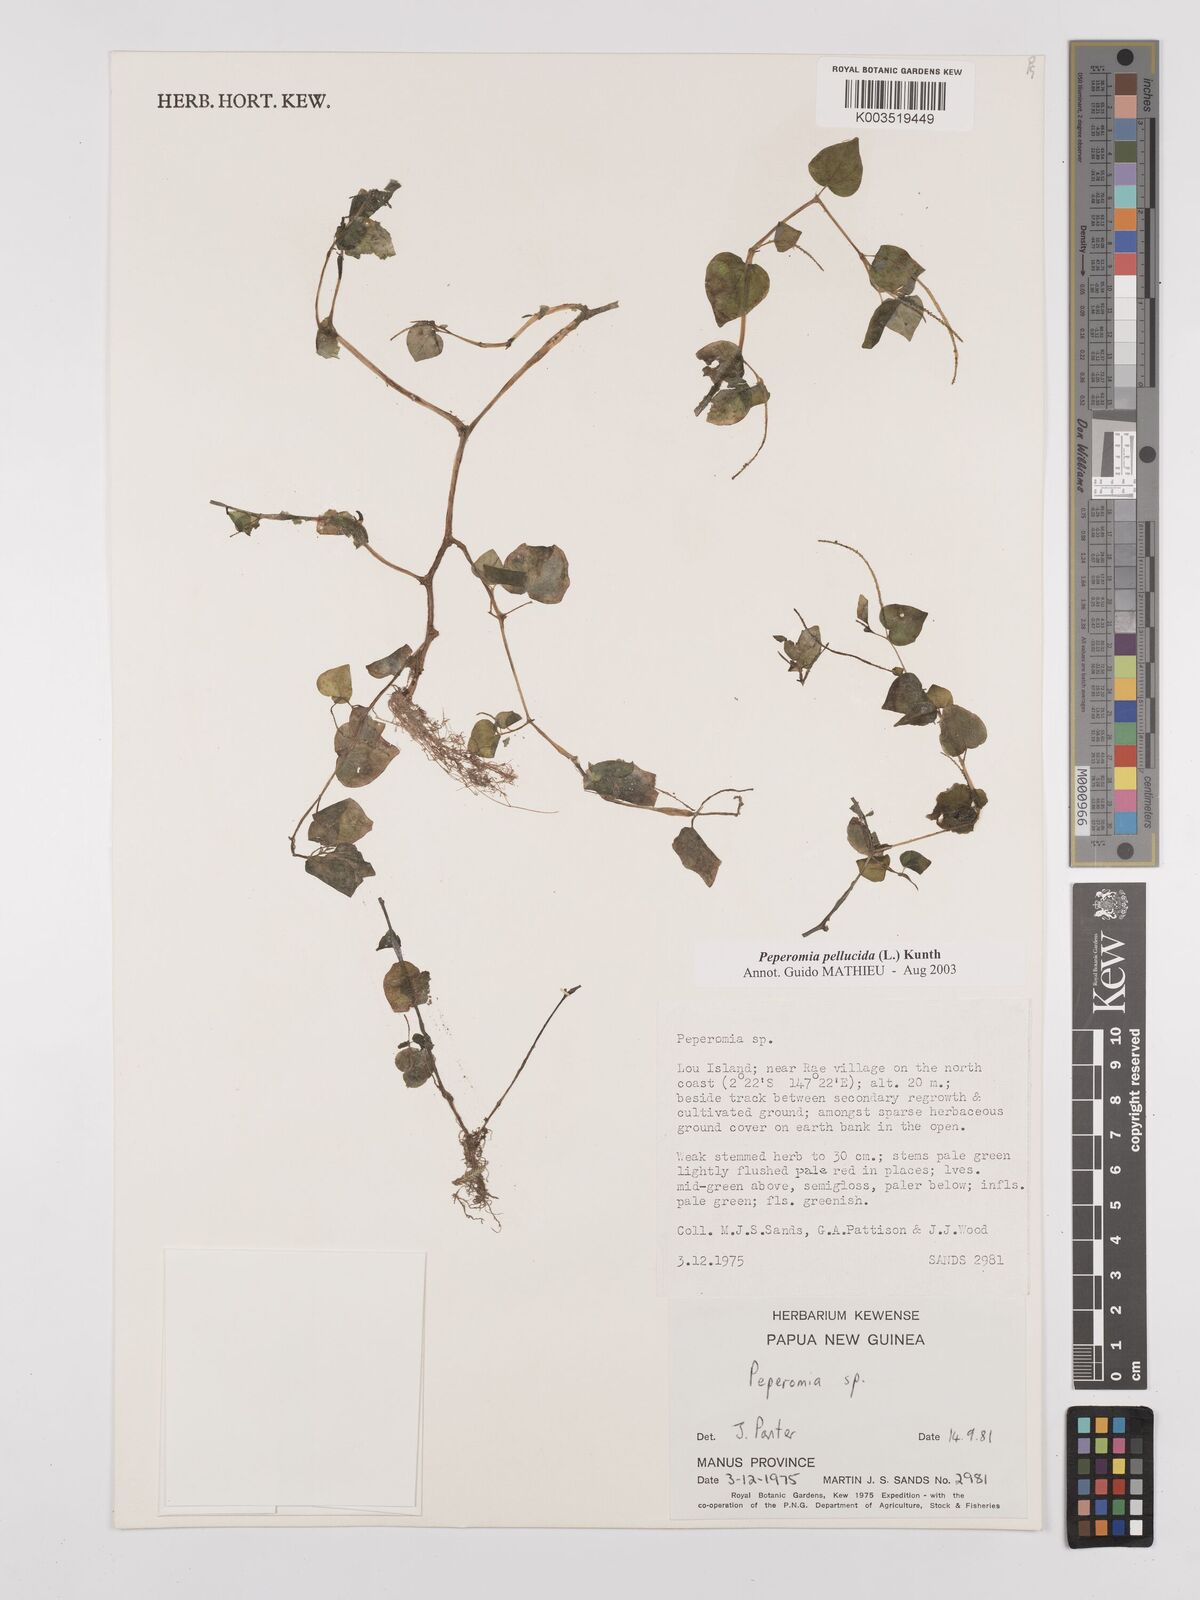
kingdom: Plantae
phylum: Tracheophyta
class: Magnoliopsida
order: Piperales
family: Piperaceae
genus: Peperomia
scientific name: Peperomia pellucida
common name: Man to man
